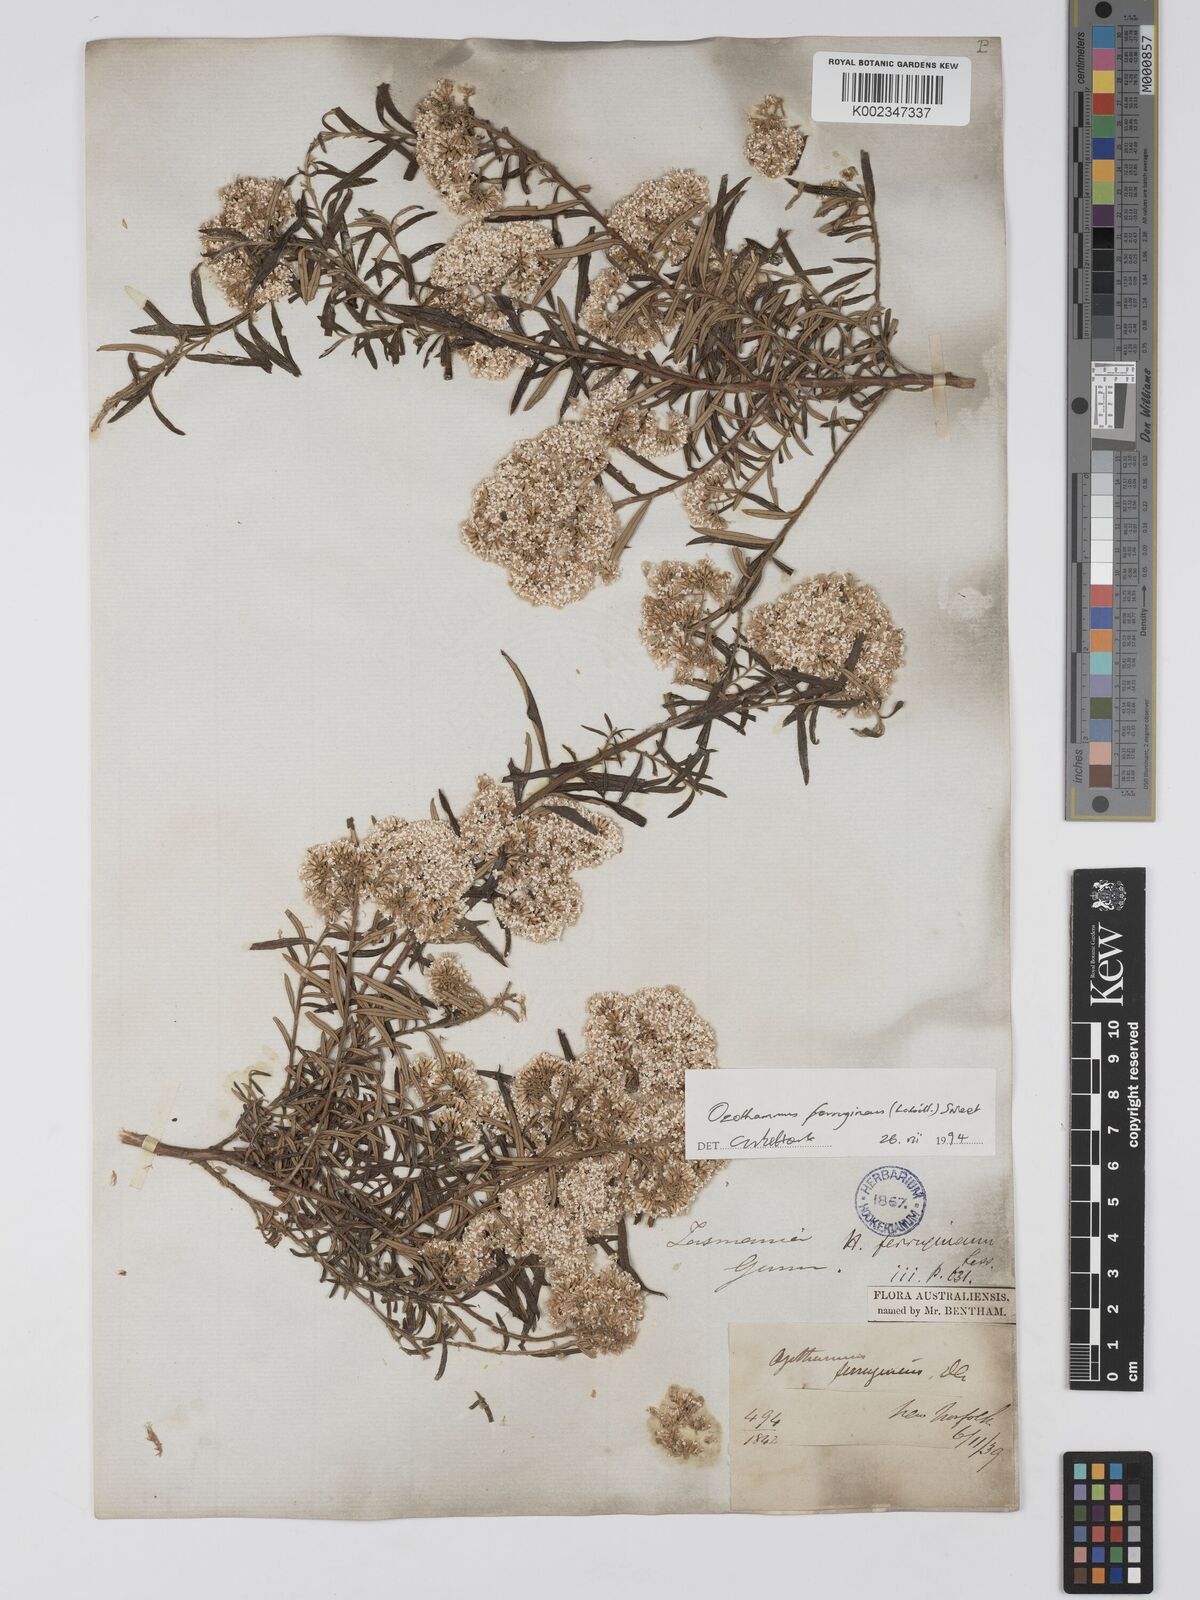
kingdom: Plantae
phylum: Tracheophyta
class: Magnoliopsida
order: Asterales
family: Asteraceae
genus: Ozothamnus
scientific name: Ozothamnus ferrugineus
